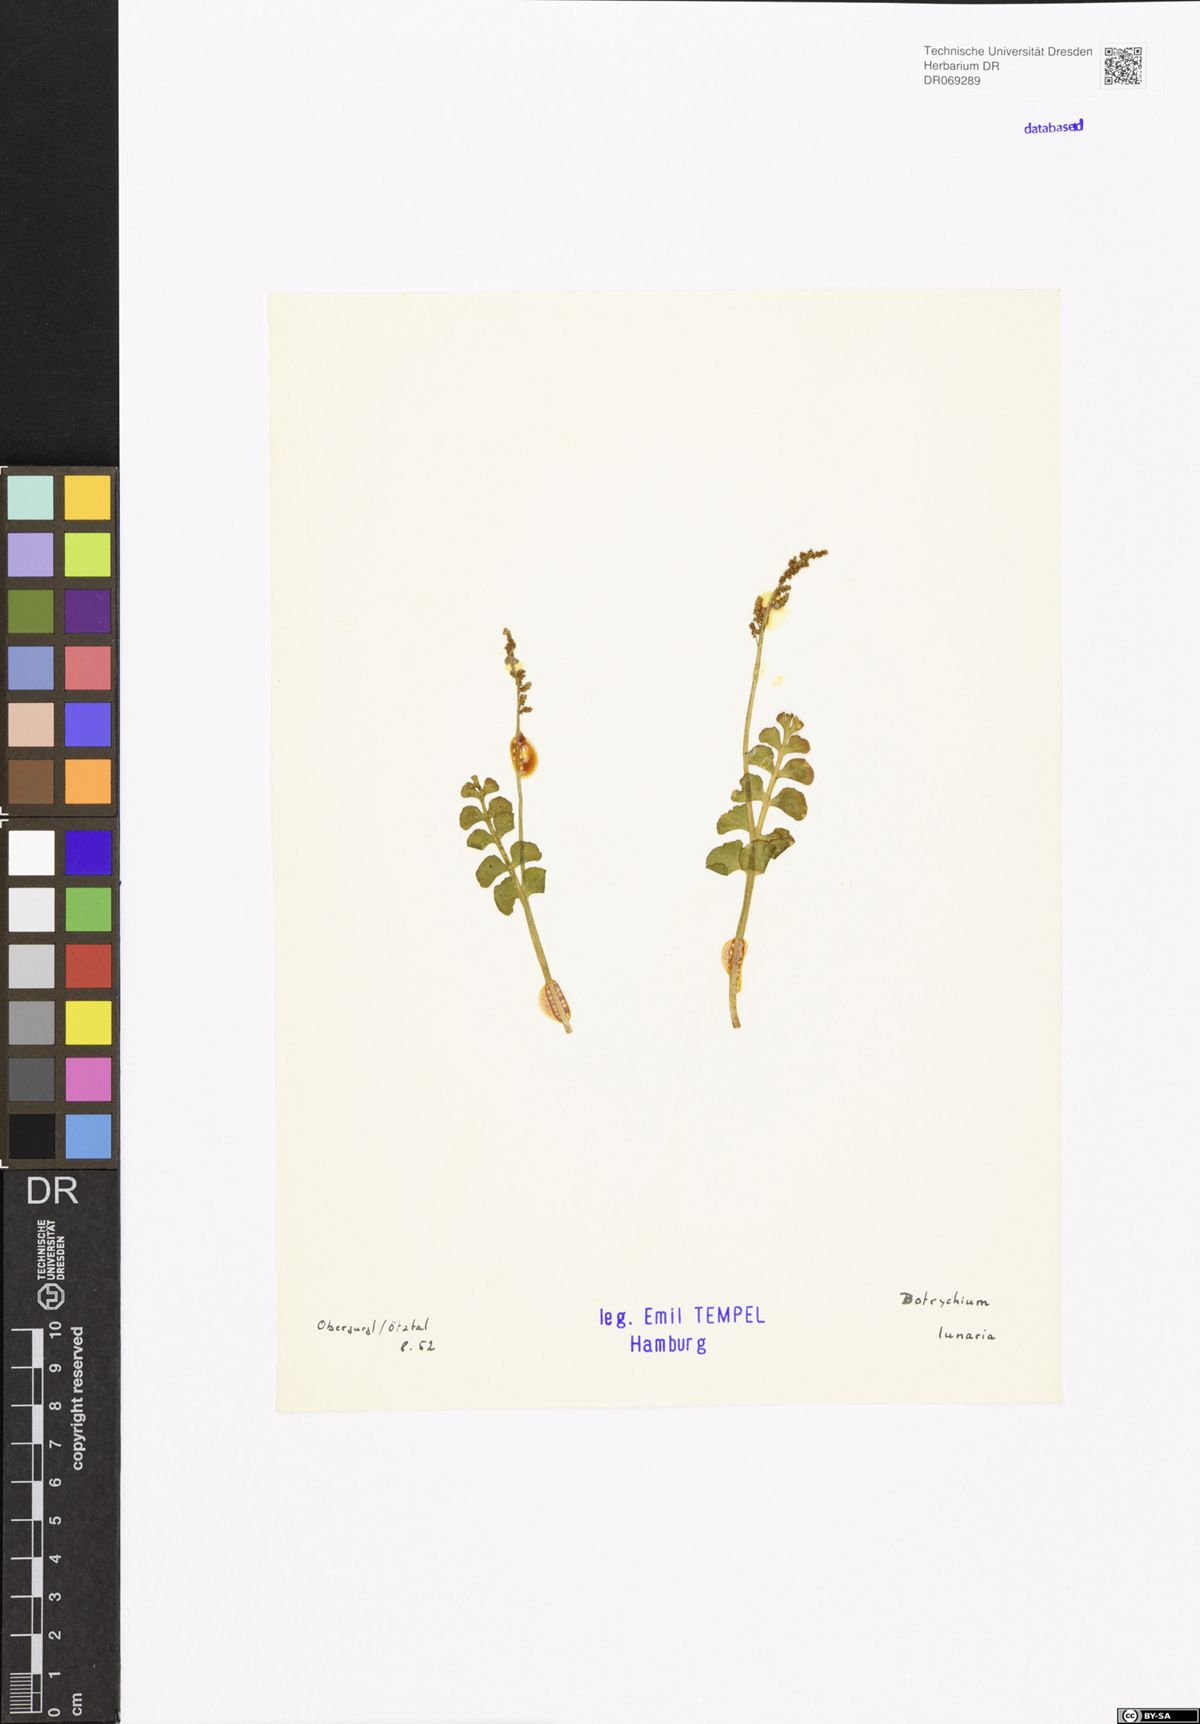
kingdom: Plantae
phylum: Tracheophyta
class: Polypodiopsida
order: Ophioglossales
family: Ophioglossaceae
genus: Botrychium
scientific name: Botrychium lunaria
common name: Moonwort
